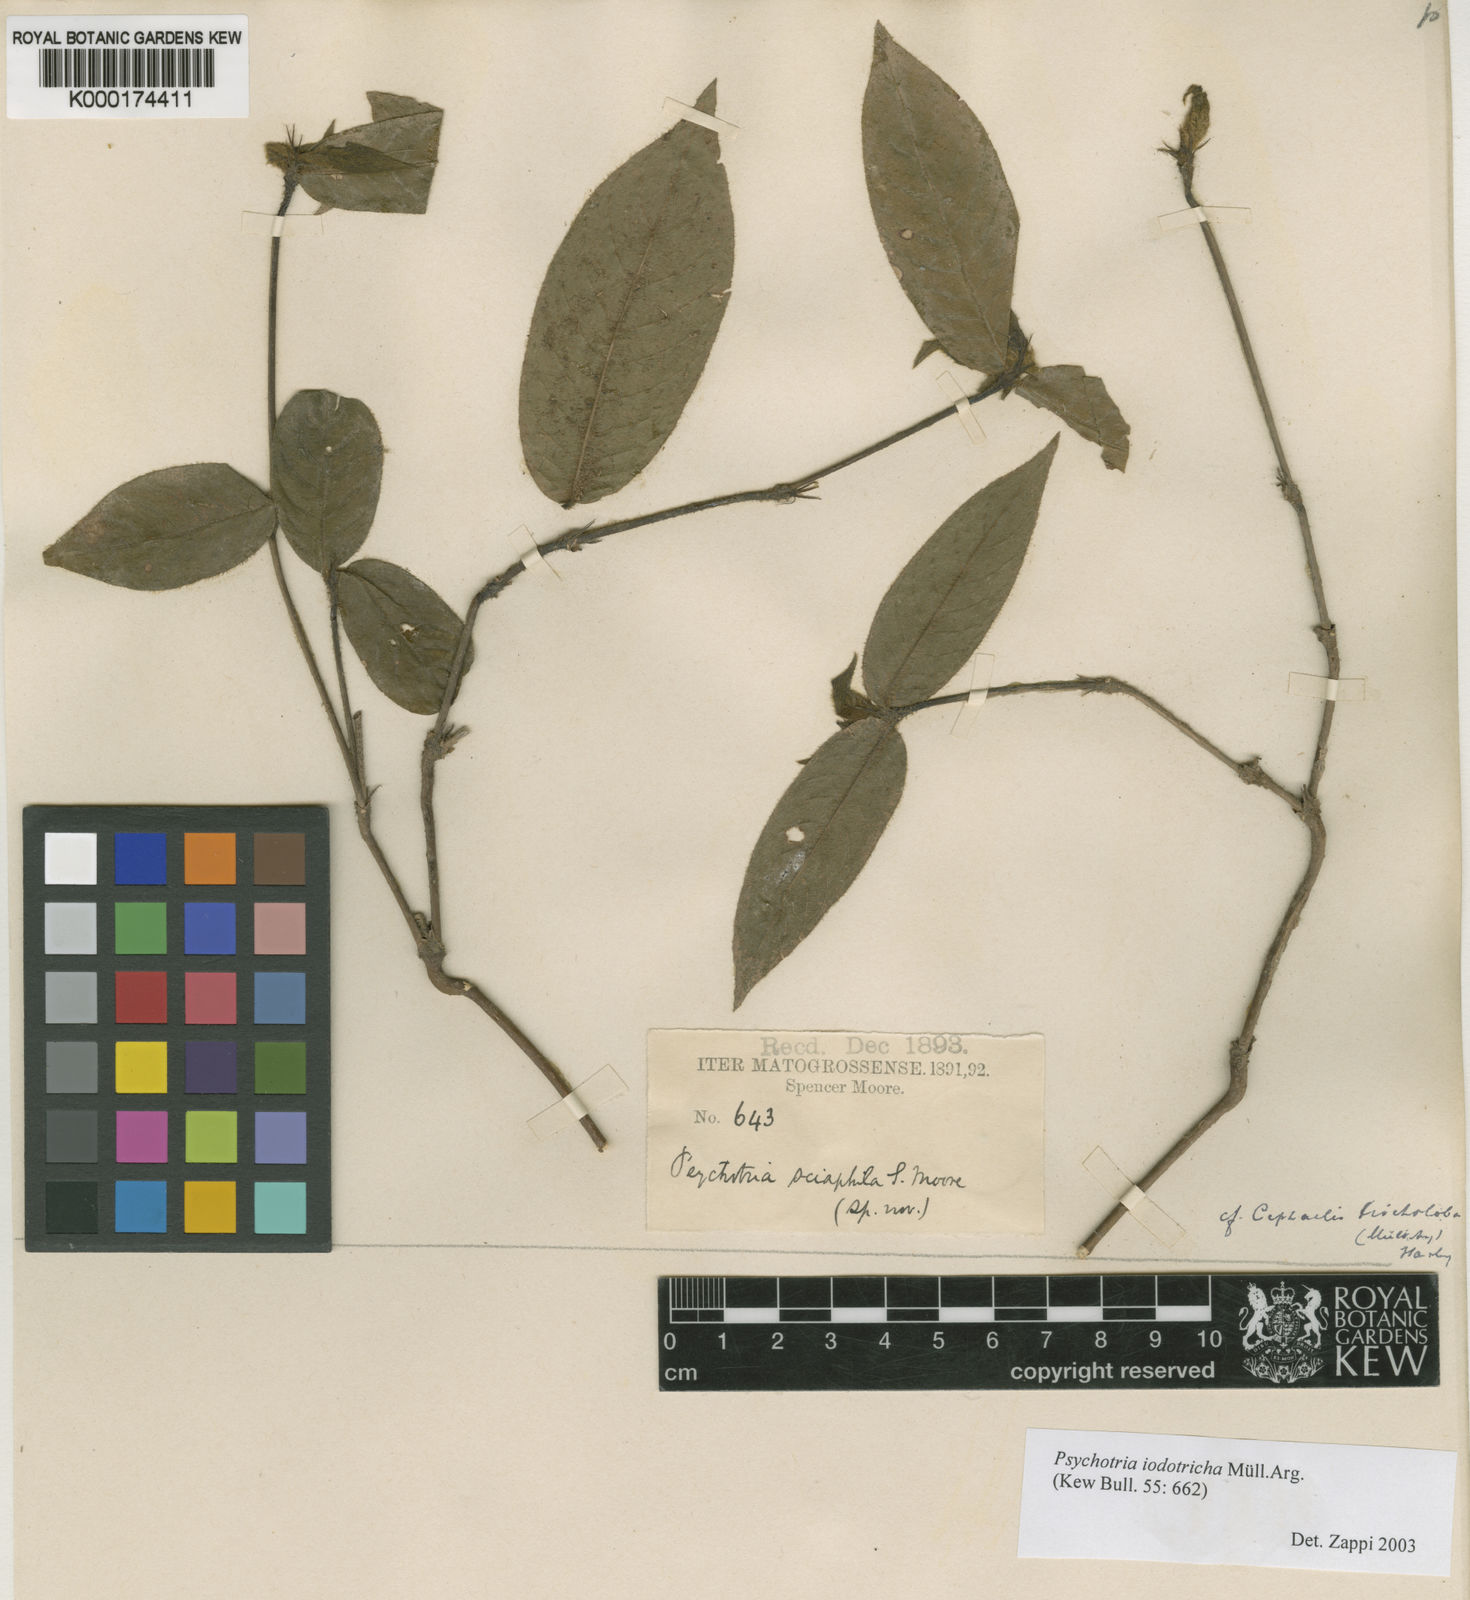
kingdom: Plantae
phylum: Tracheophyta
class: Magnoliopsida
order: Gentianales
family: Rubiaceae
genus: Psychotria
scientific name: Psychotria
